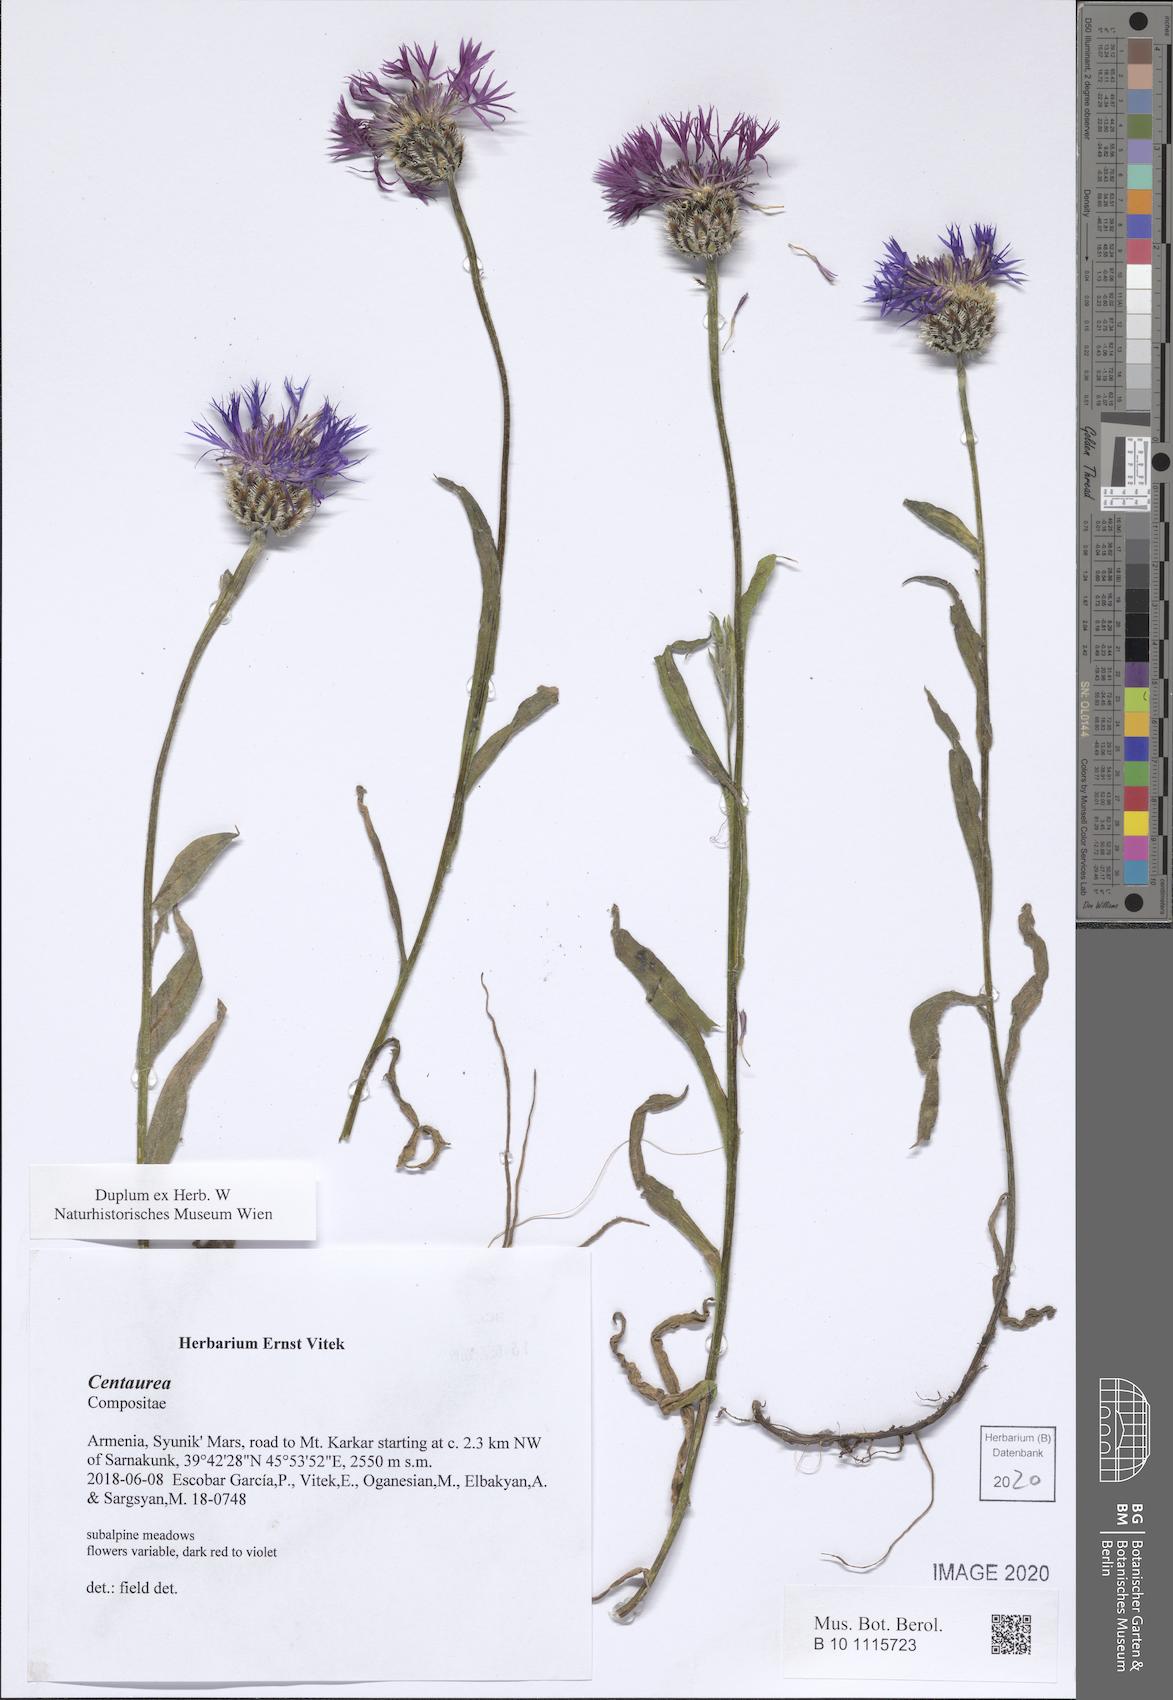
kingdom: Plantae
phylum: Tracheophyta
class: Magnoliopsida
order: Asterales
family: Asteraceae
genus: Centaurea
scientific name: Centaurea
